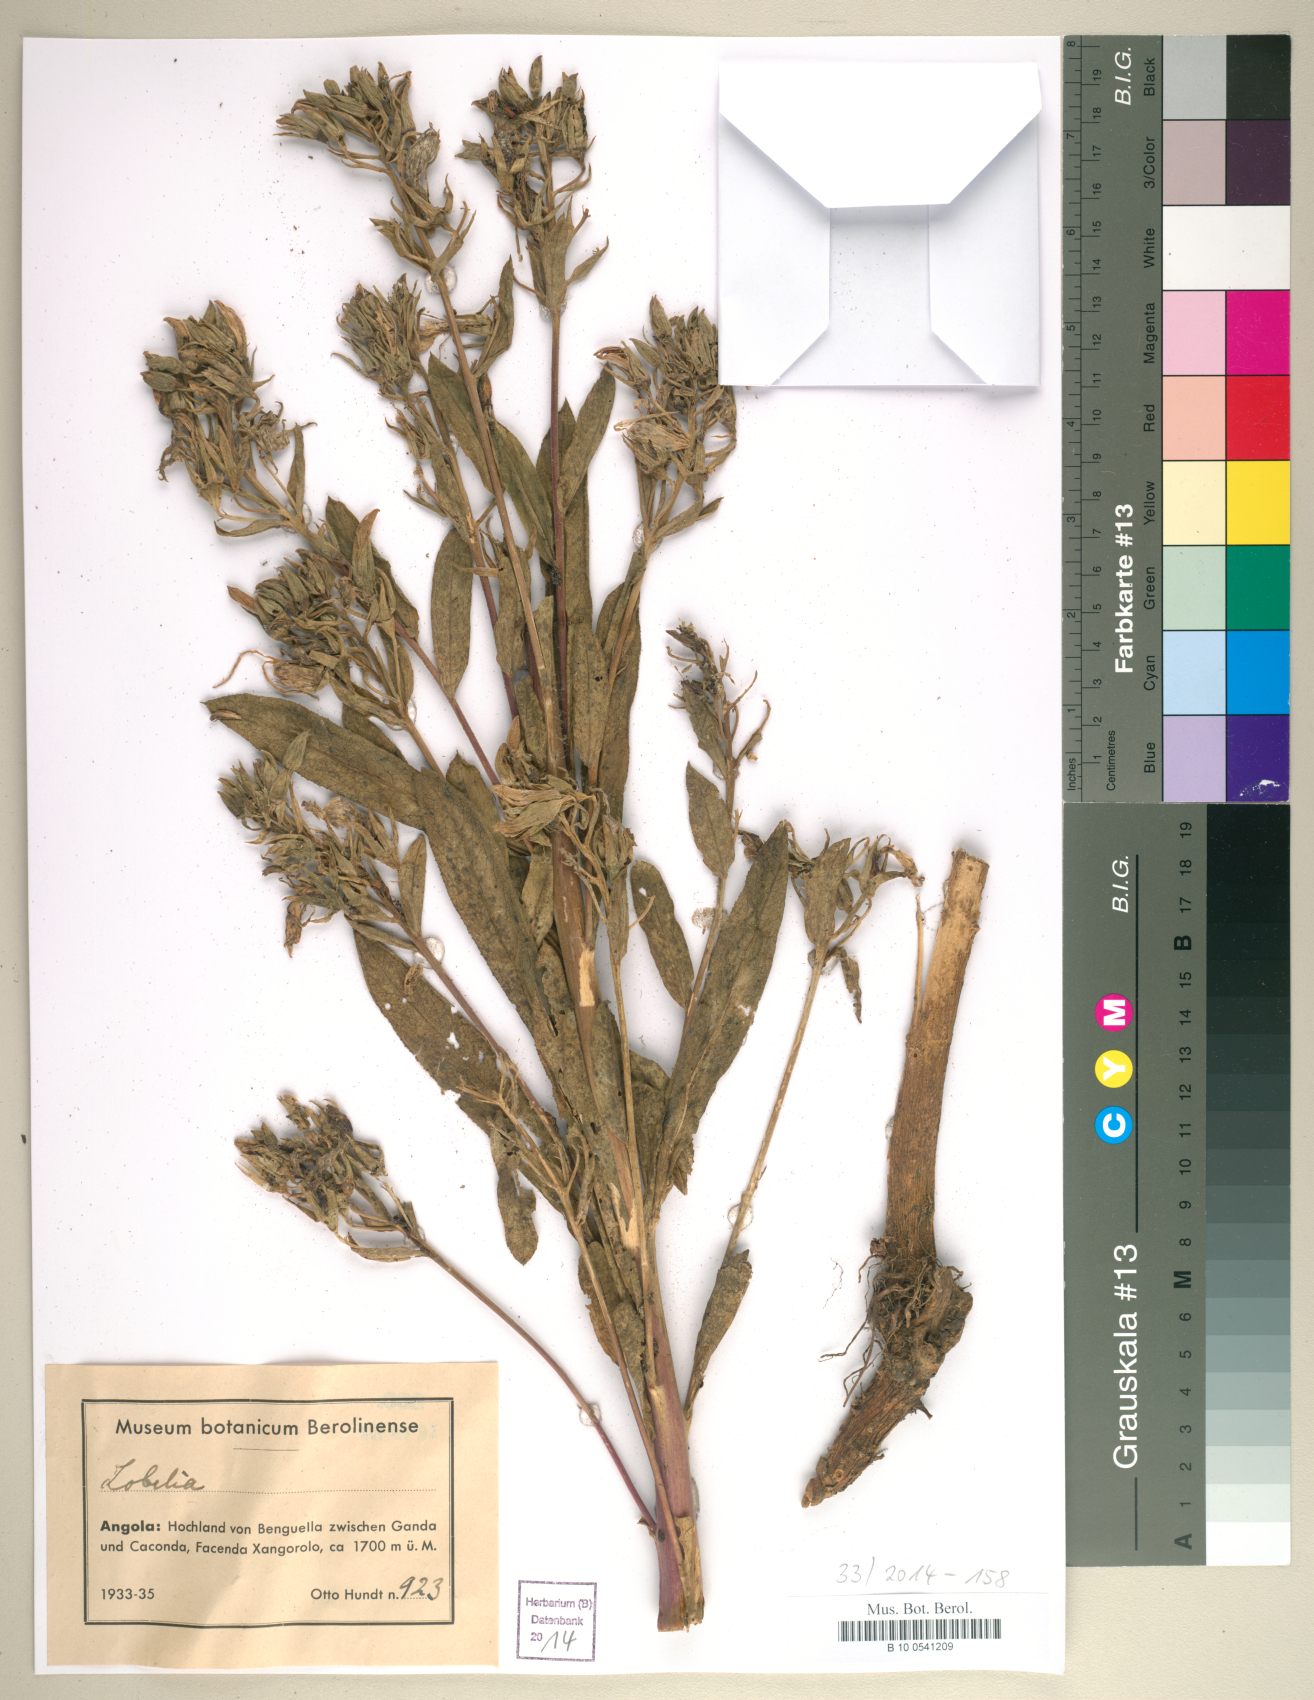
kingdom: Plantae
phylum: Tracheophyta
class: Magnoliopsida
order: Asterales
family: Campanulaceae
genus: Lobelia
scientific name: Lobelia
